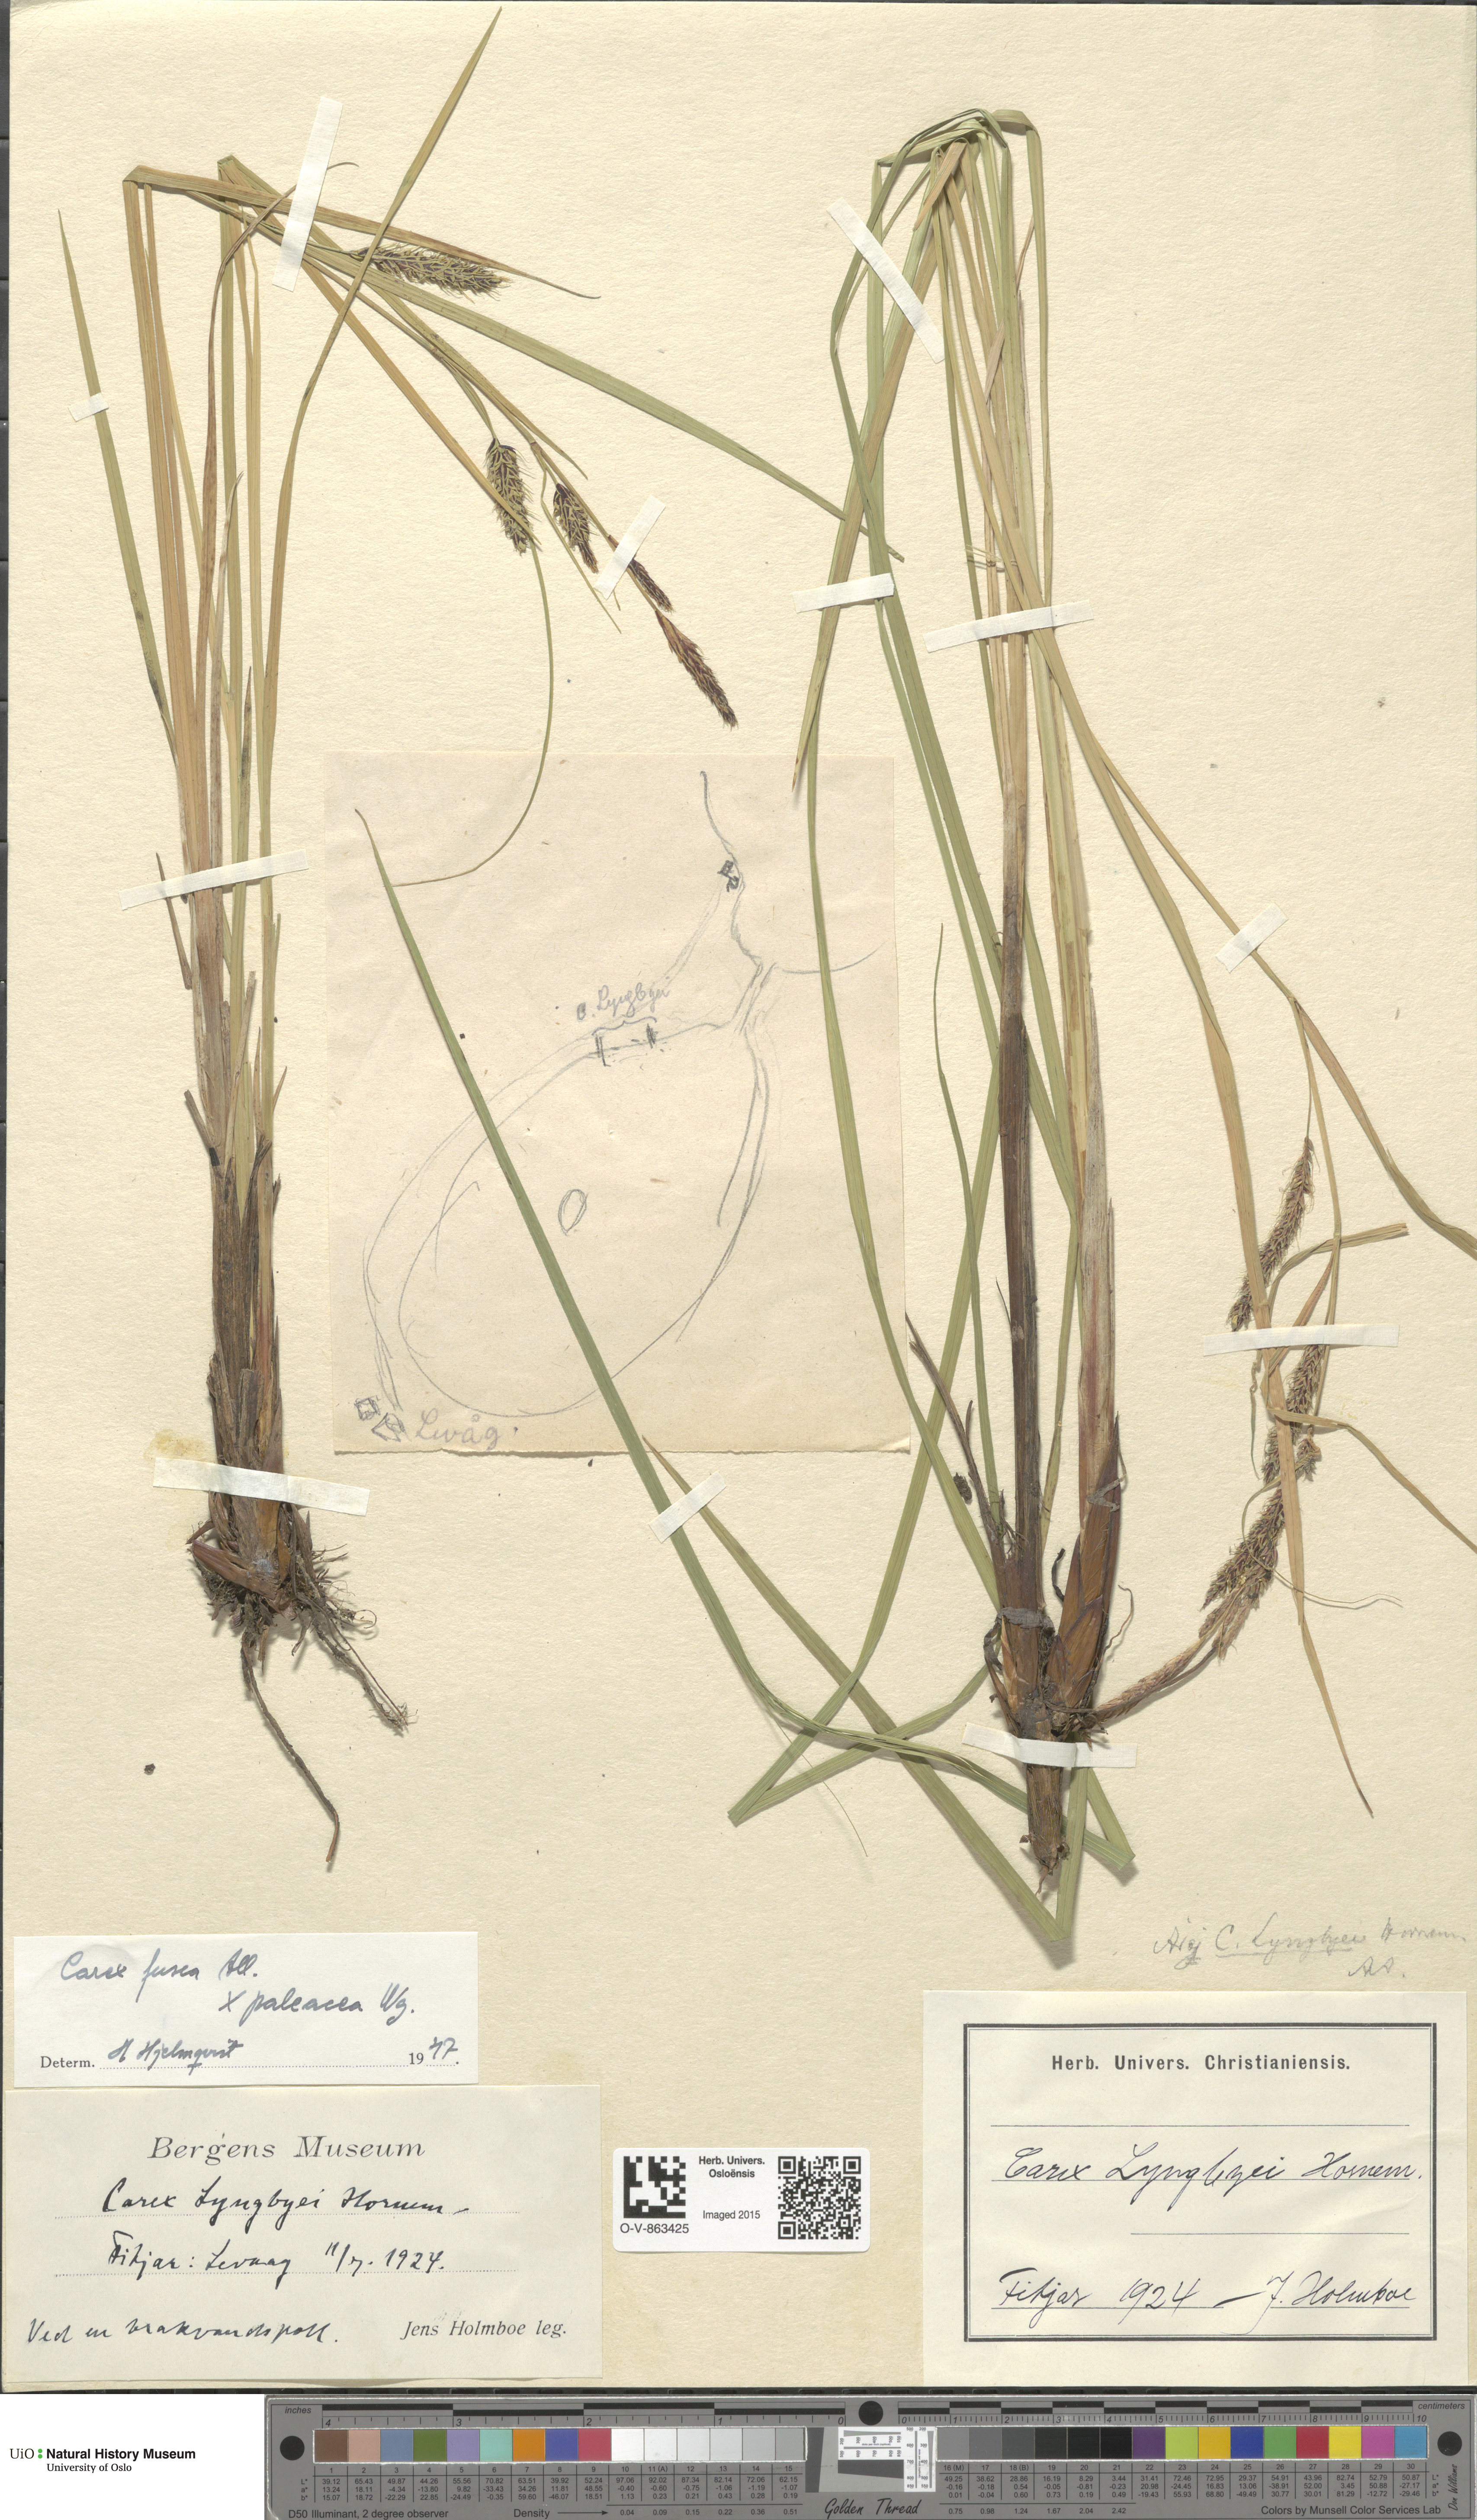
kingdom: Plantae
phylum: Tracheophyta
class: Liliopsida
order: Poales
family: Cyperaceae
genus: Carex
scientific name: Carex
